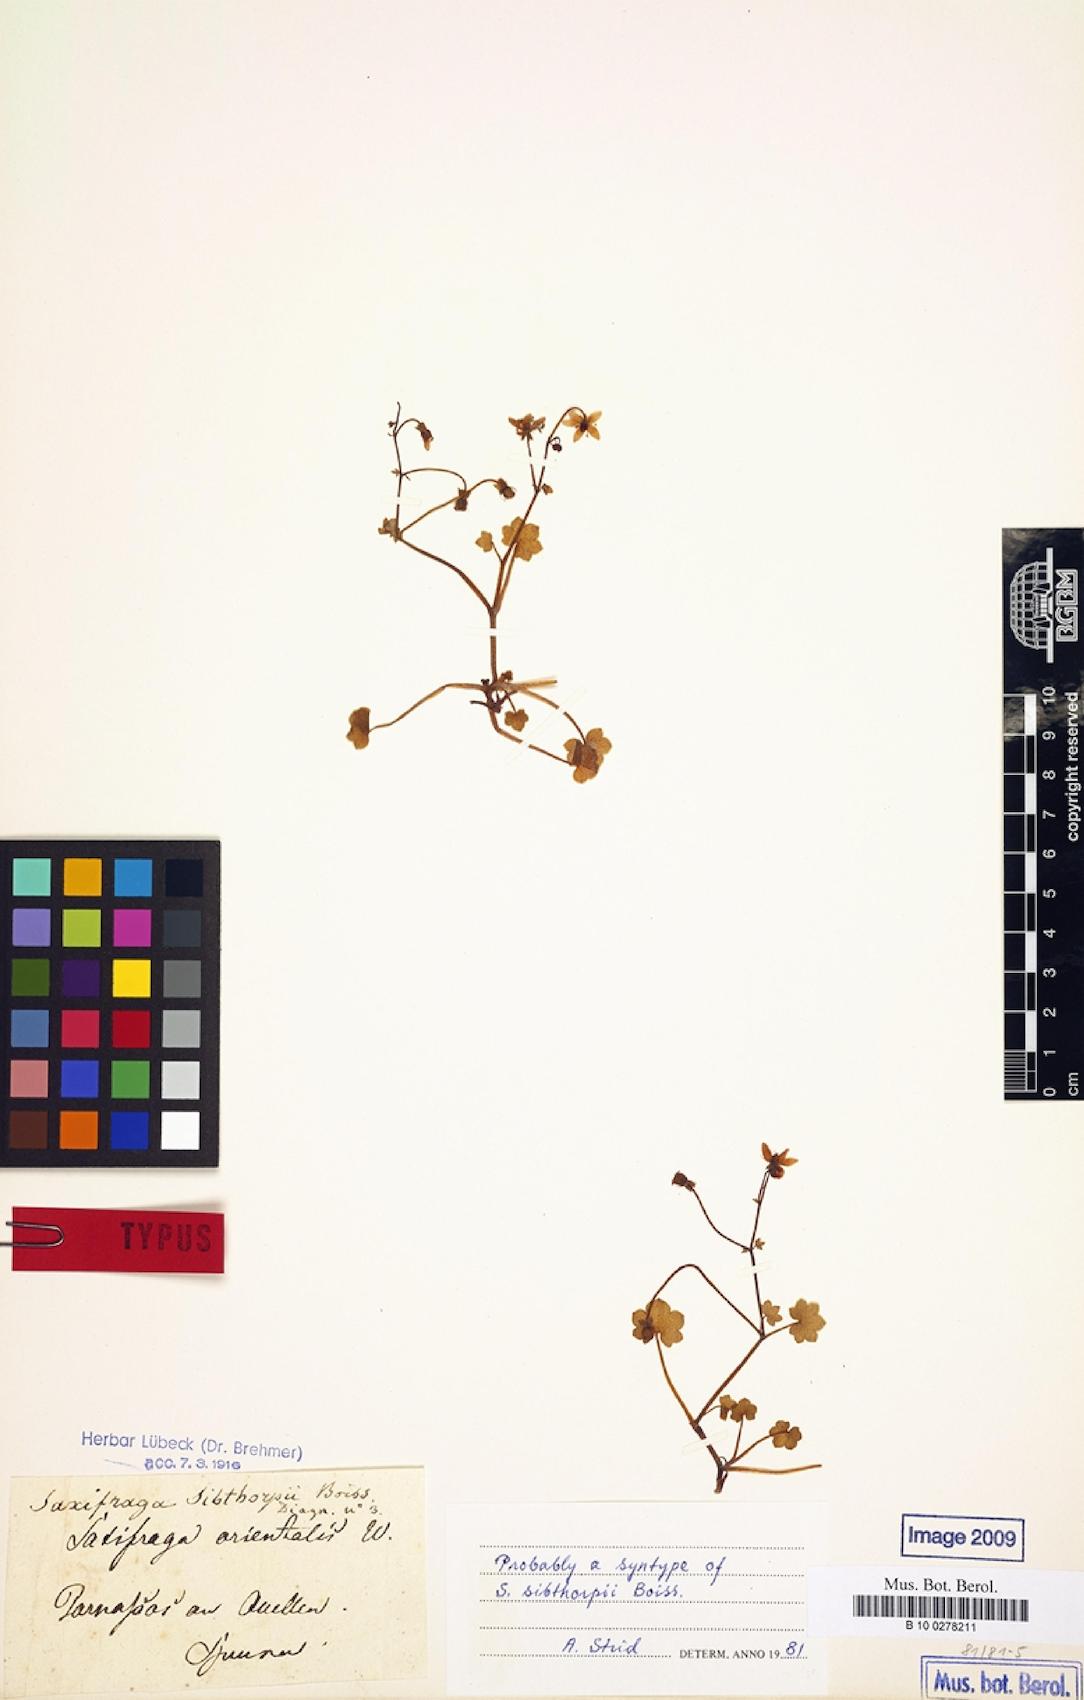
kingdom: Plantae
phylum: Tracheophyta
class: Magnoliopsida
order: Saxifragales
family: Saxifragaceae
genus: Saxifraga
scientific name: Saxifraga sibthorpii
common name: Yellow saxifrage
